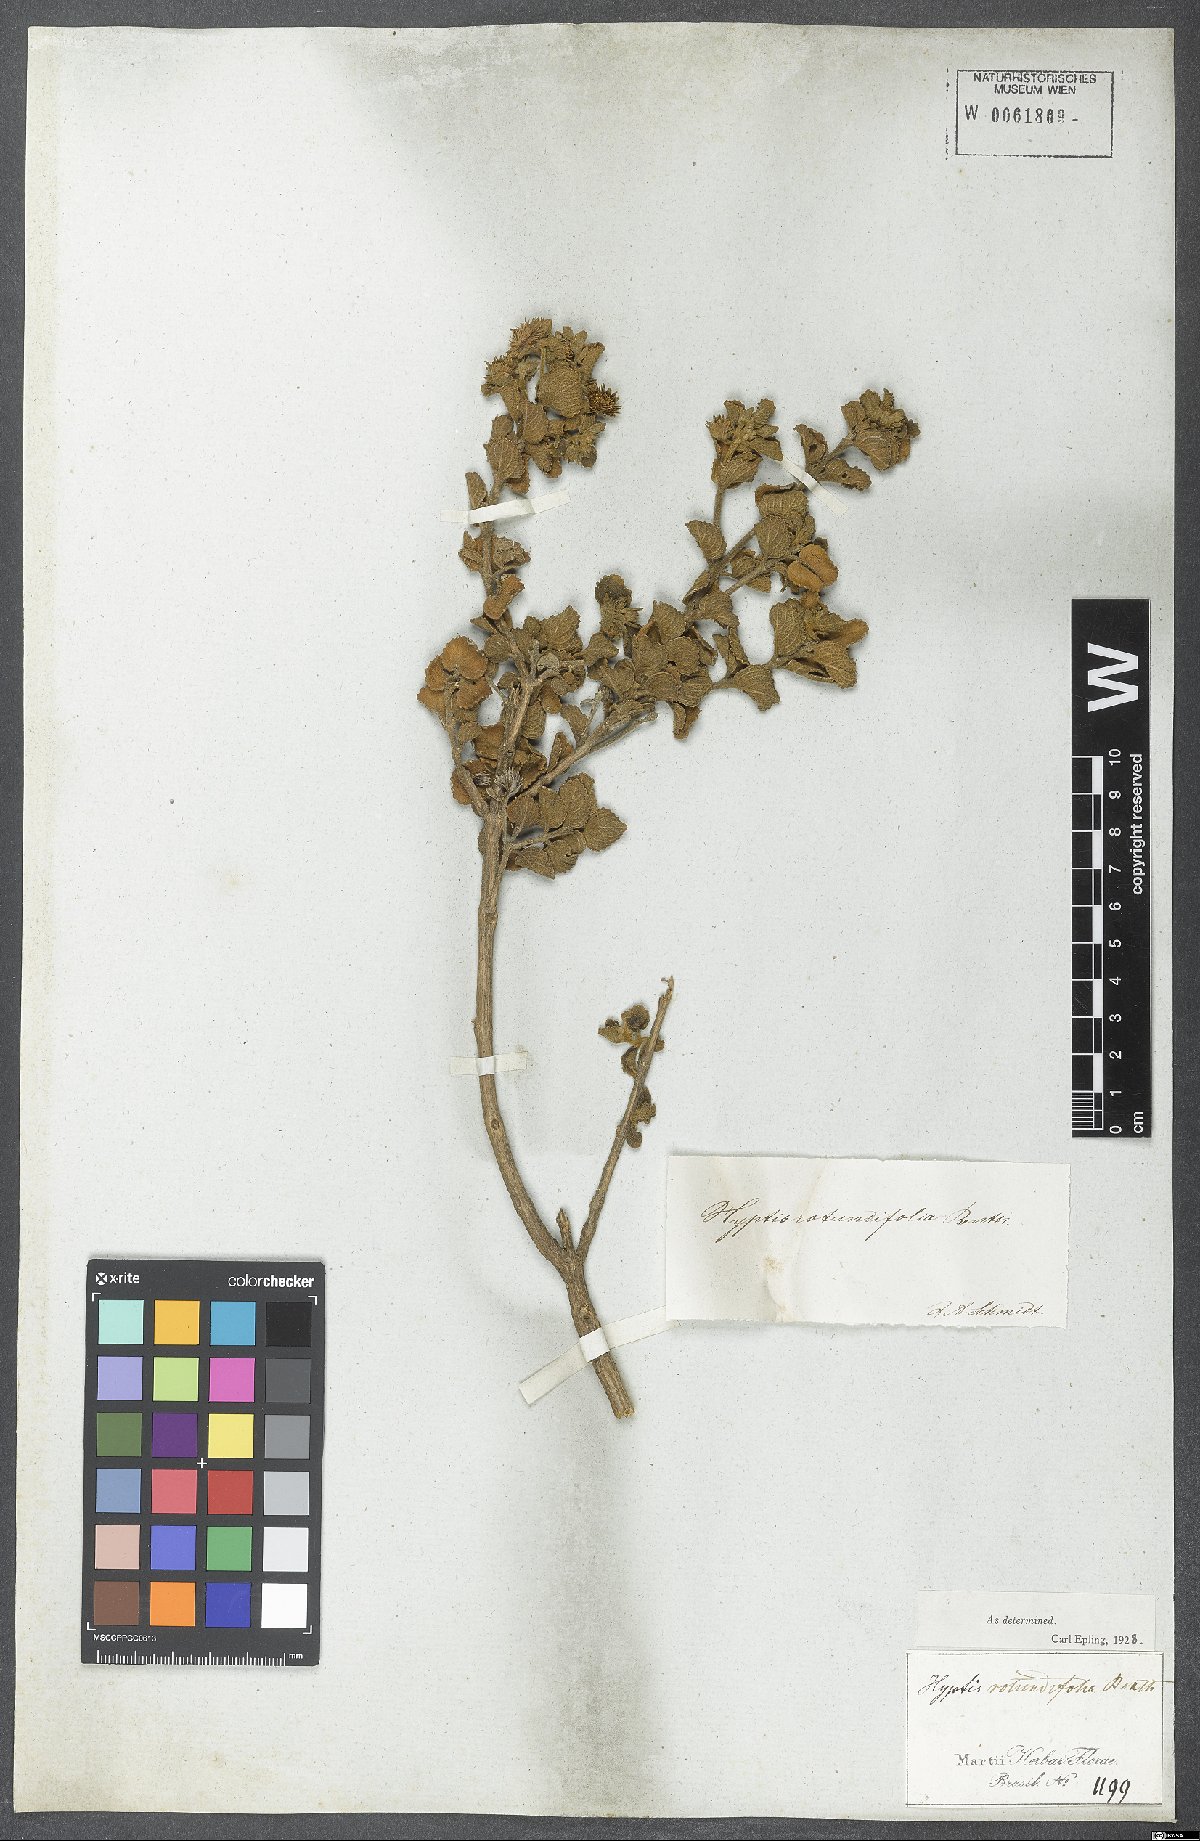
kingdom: Plantae
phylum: Tracheophyta
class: Magnoliopsida
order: Lamiales
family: Lamiaceae
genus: Hyptis
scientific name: Hyptis rotundifolia
